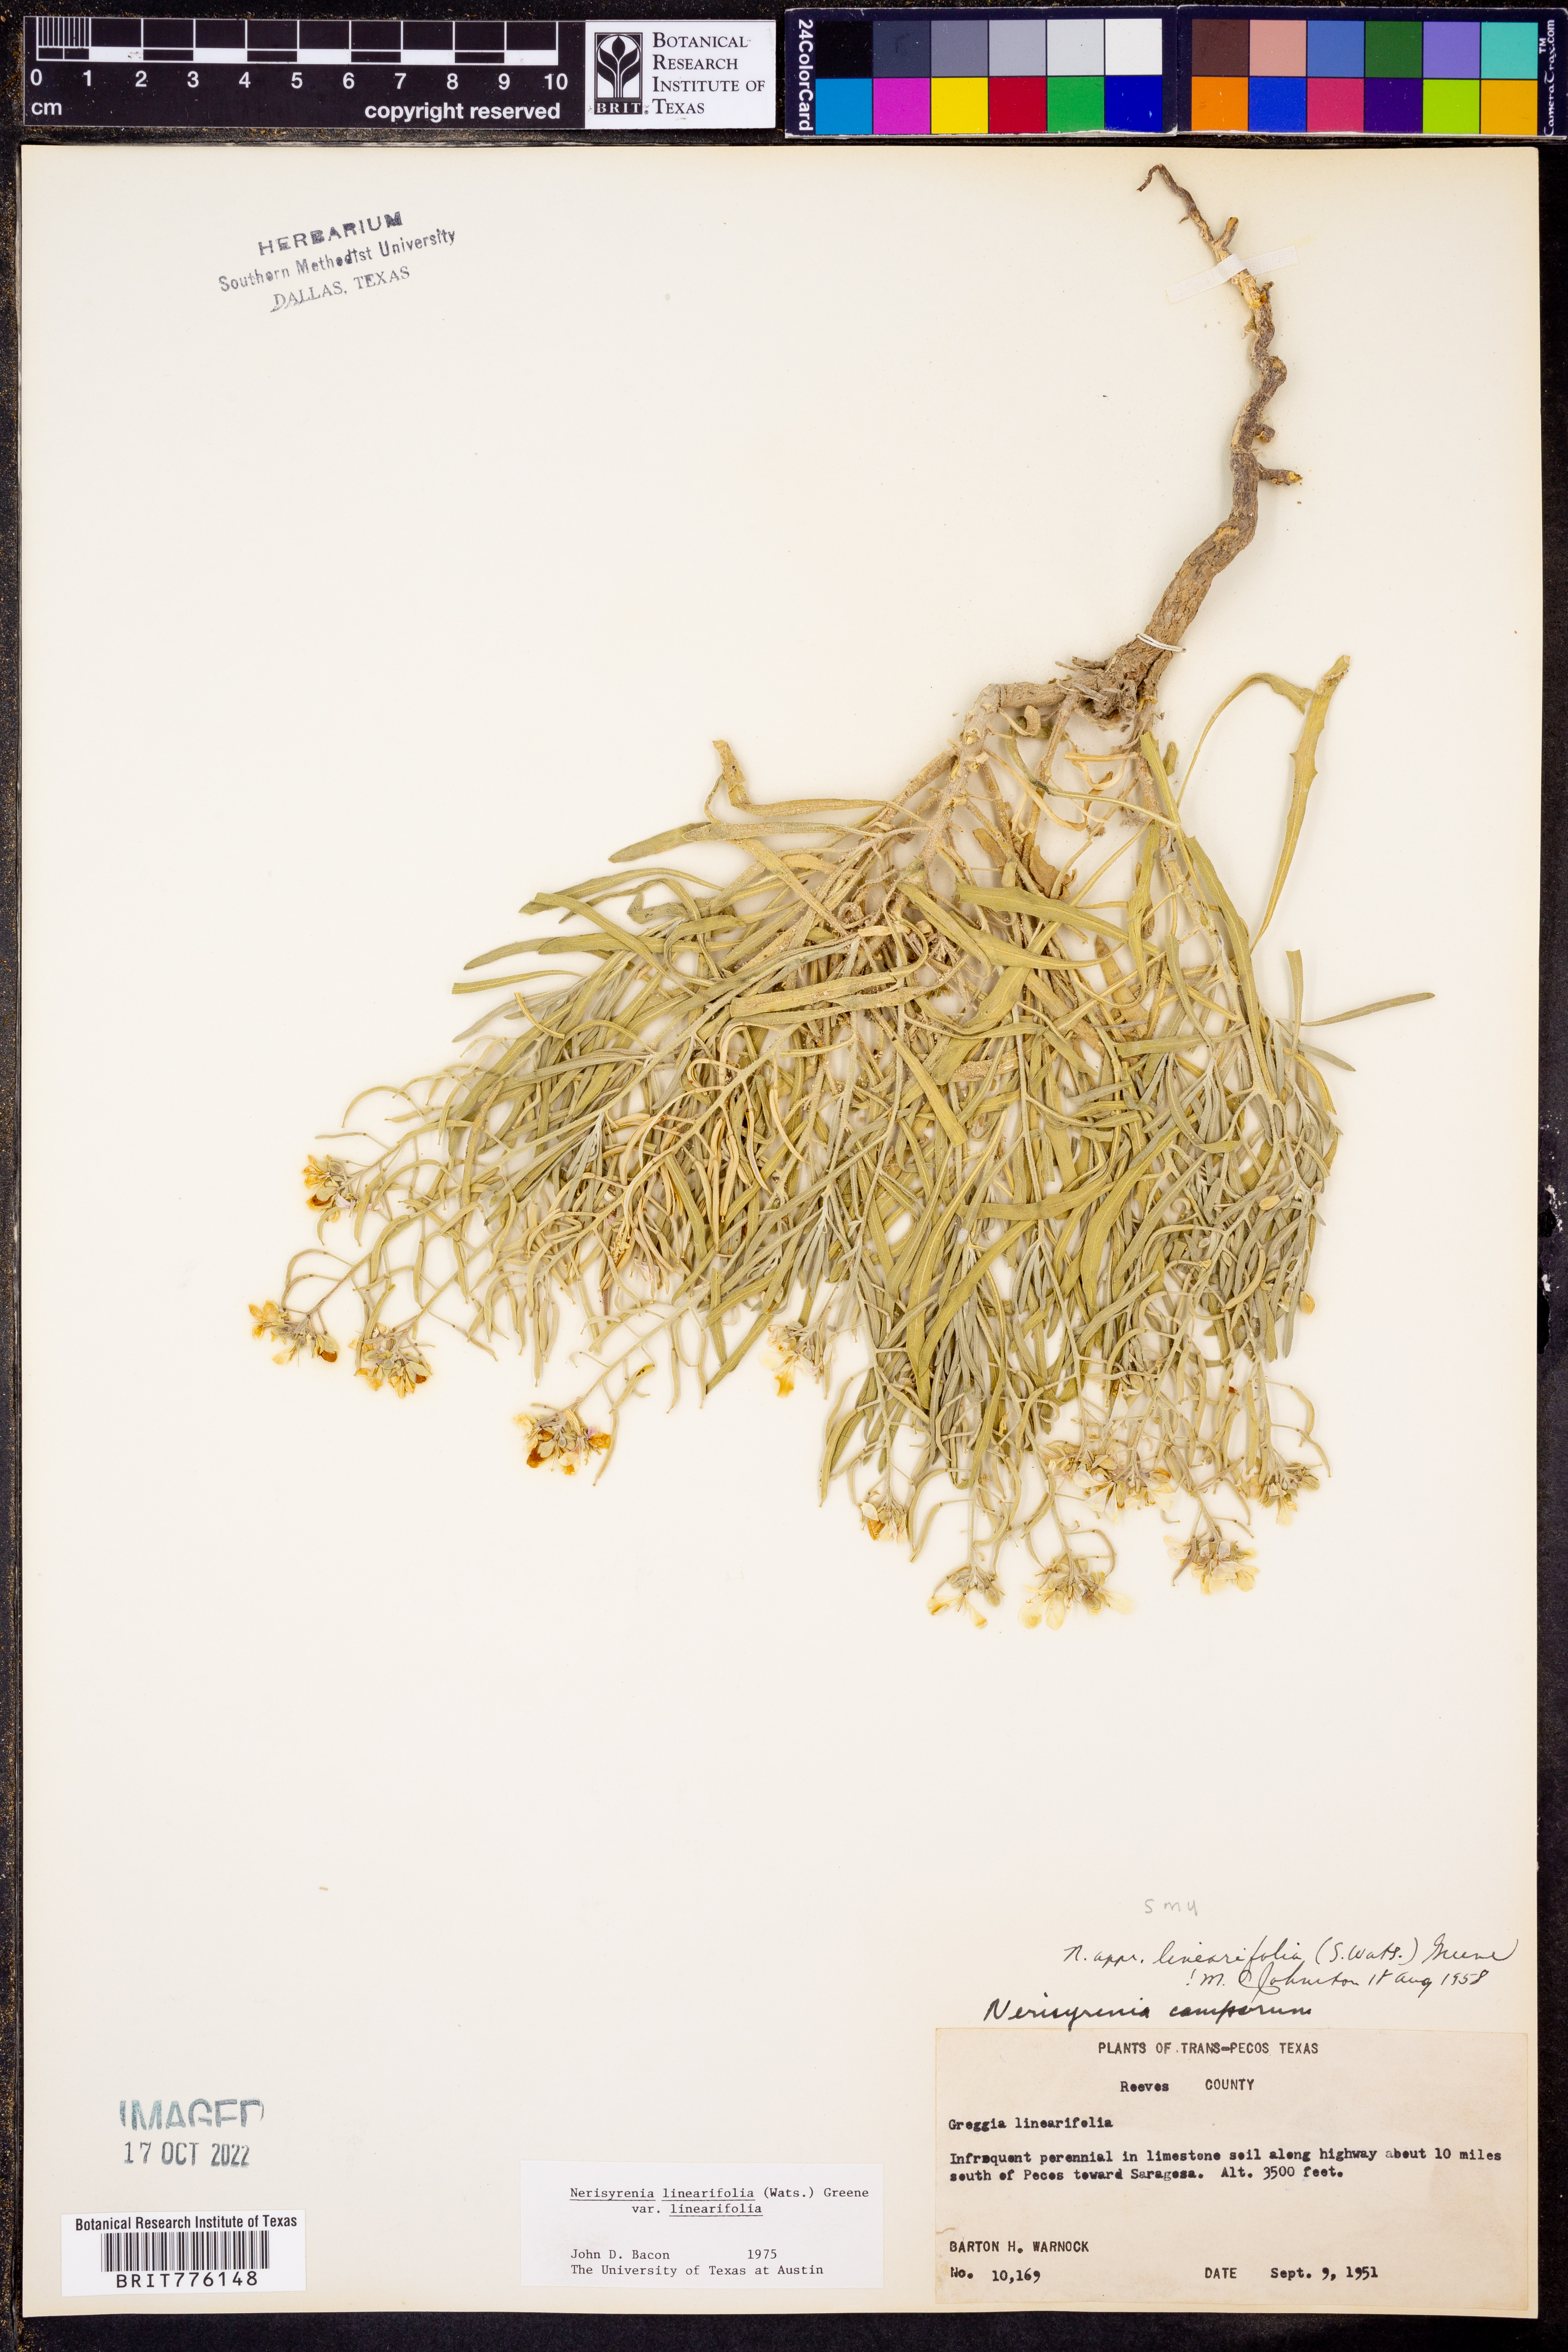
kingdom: Plantae
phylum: Tracheophyta
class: Magnoliopsida
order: Brassicales
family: Brassicaceae
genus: Nerisyrenia
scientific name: Nerisyrenia linearifolia
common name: White sands fan mustard
